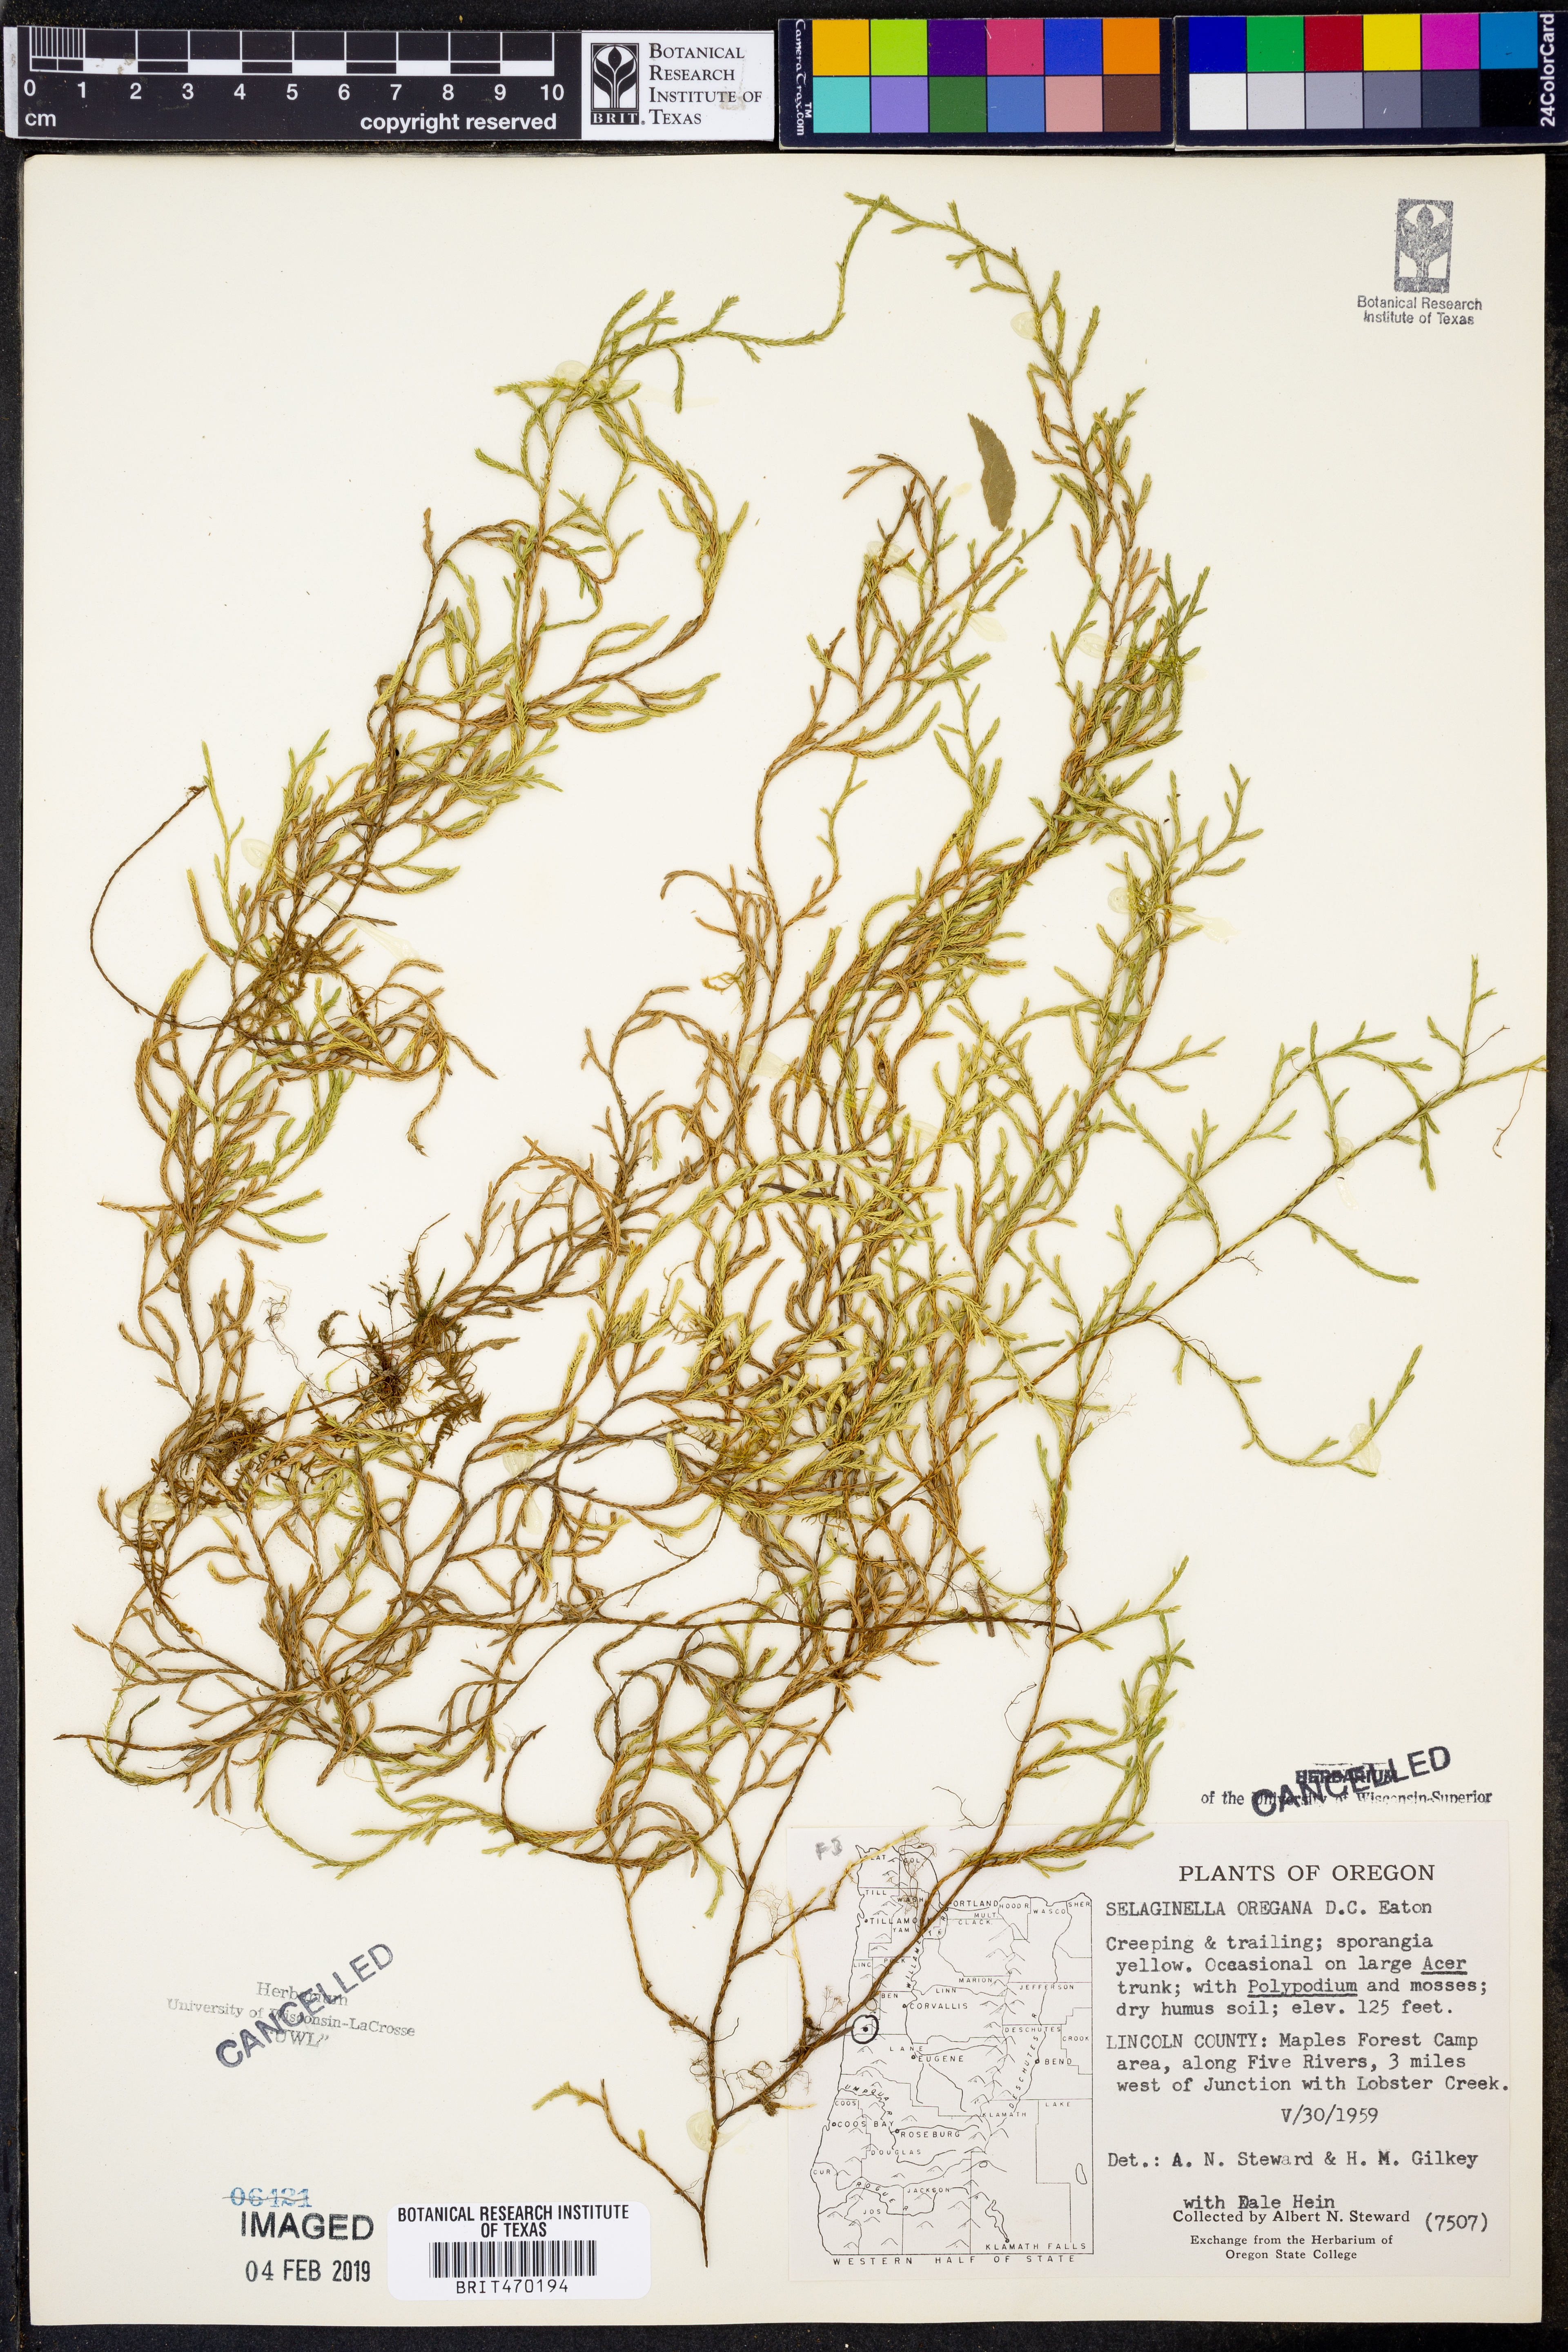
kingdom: Plantae
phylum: Tracheophyta
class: Lycopodiopsida
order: Selaginellales
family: Selaginellaceae
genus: Selaginella
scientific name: Selaginella oregana
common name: Oregon selaginella
